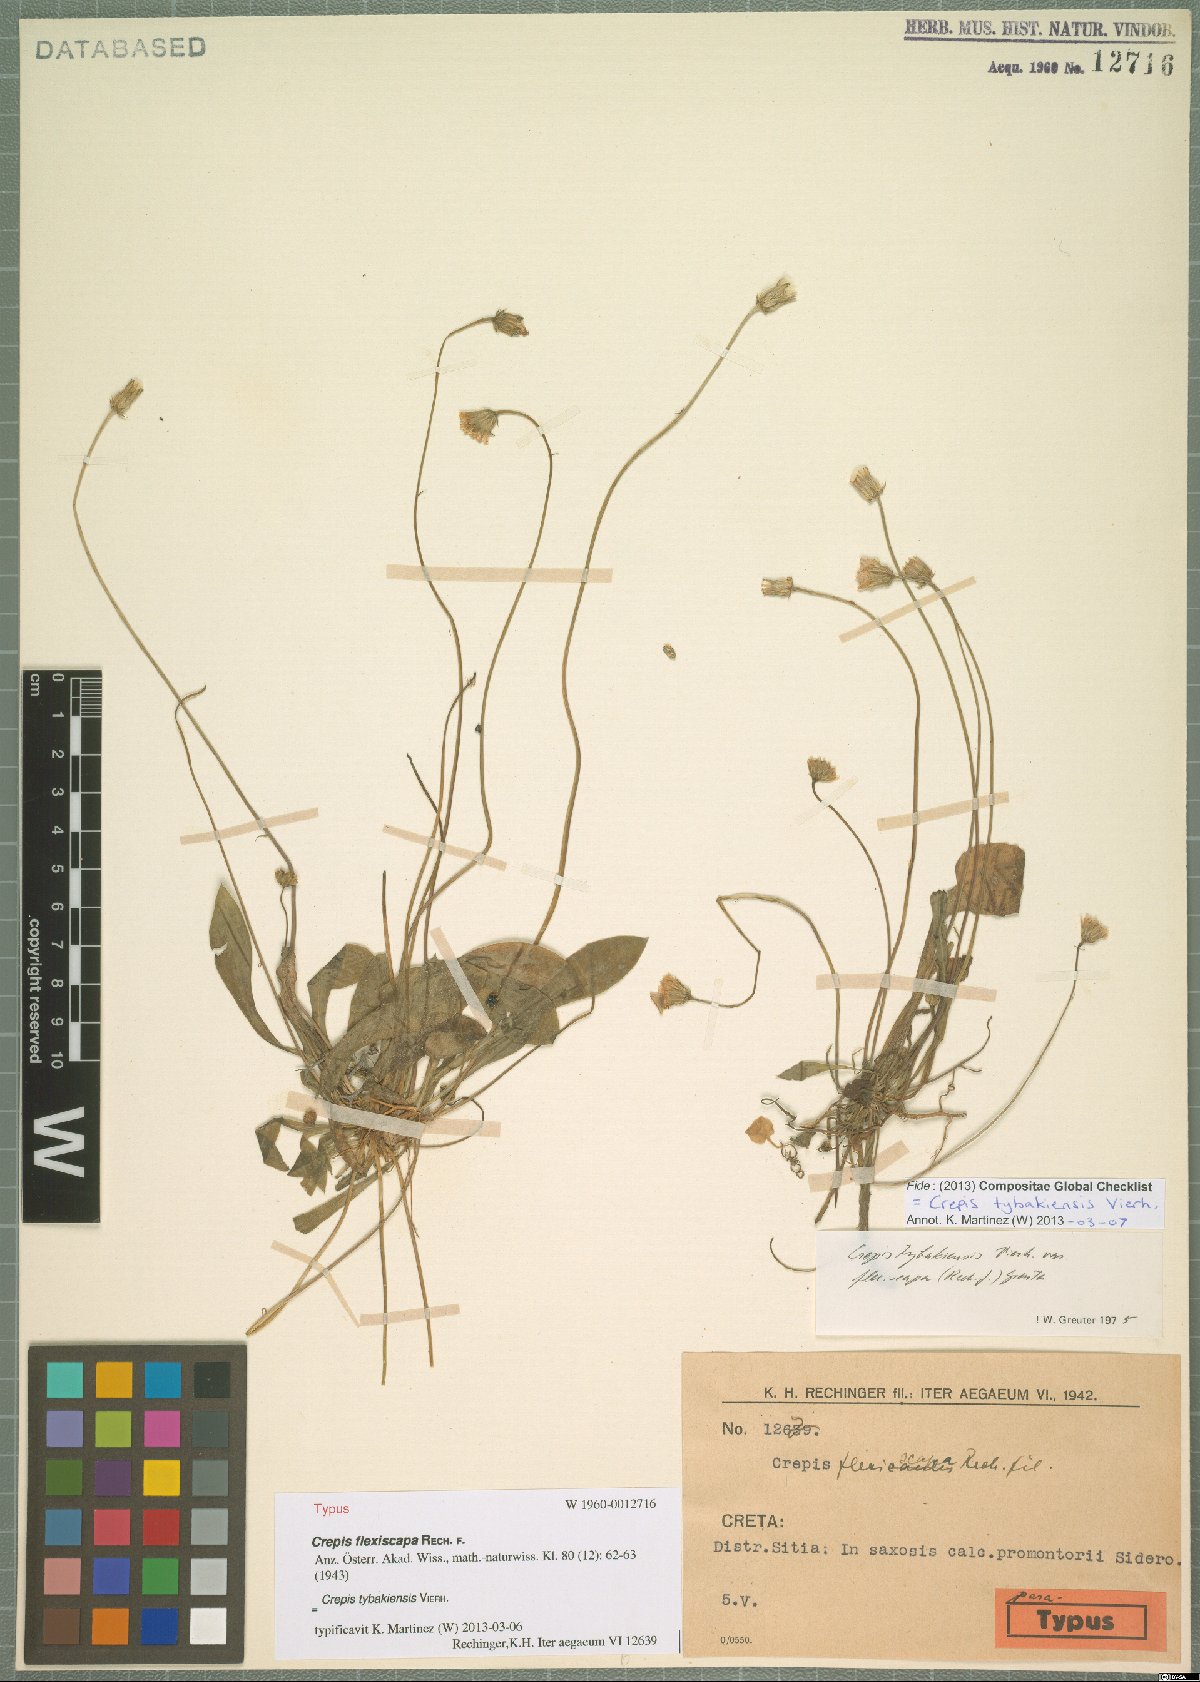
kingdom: Plantae
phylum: Tracheophyta
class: Magnoliopsida
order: Asterales
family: Asteraceae
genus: Crepis
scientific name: Crepis tybakiensis
